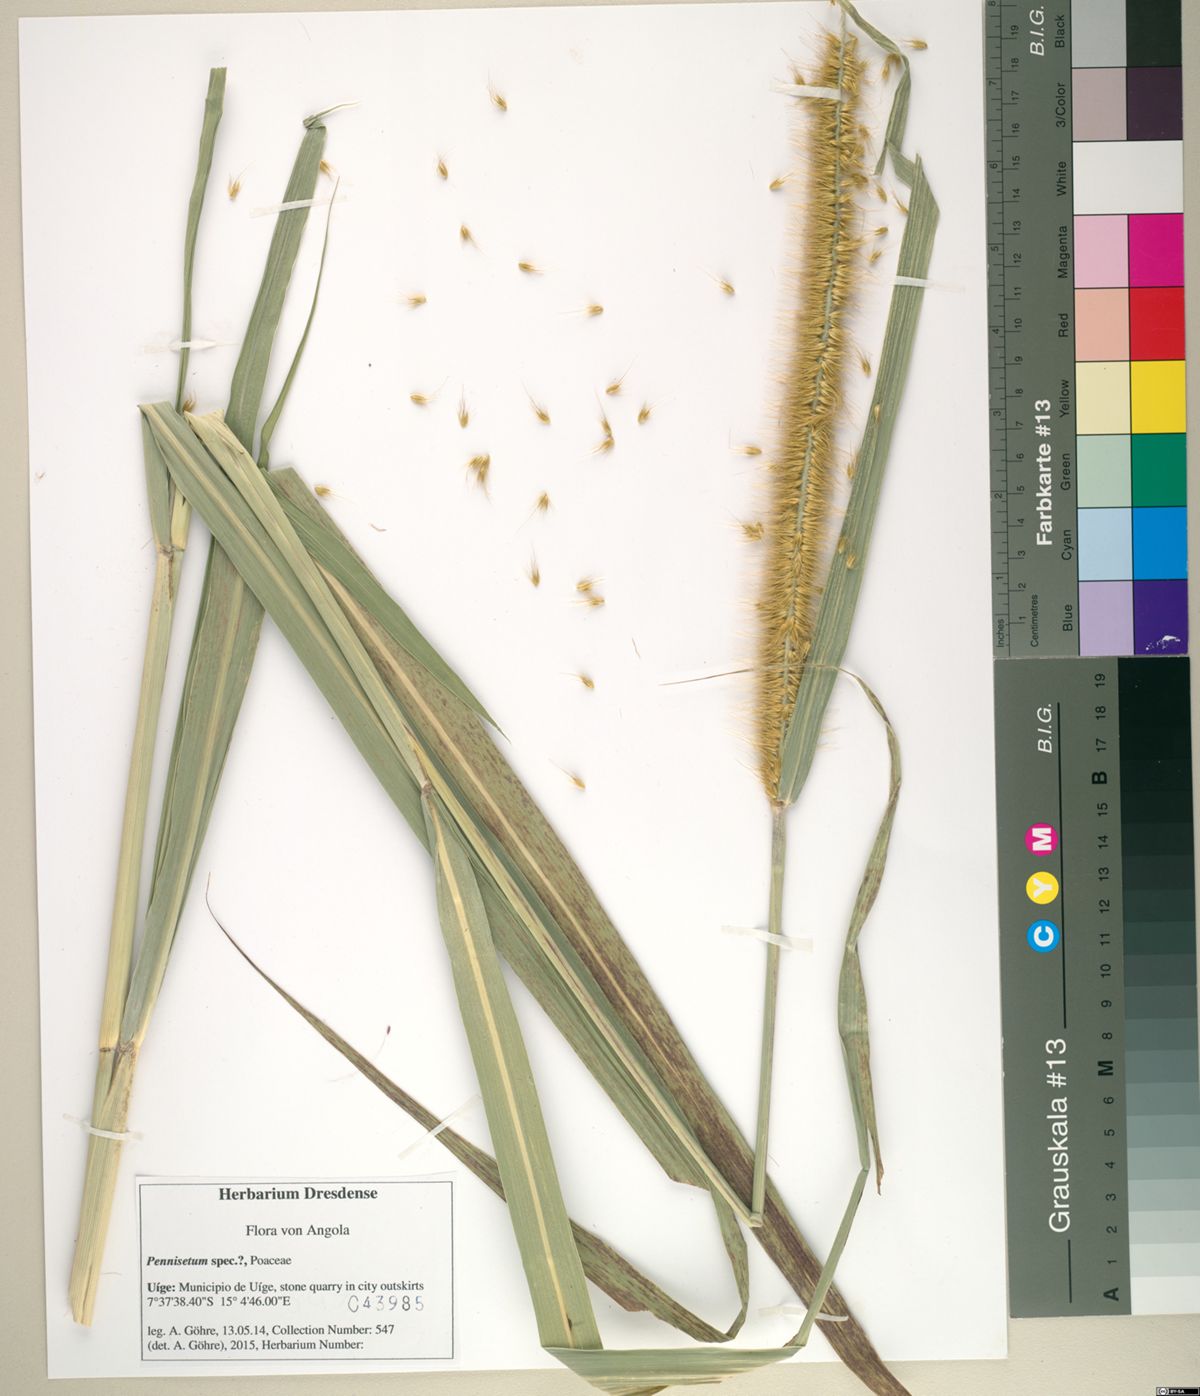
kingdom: Plantae
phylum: Tracheophyta
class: Liliopsida
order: Poales
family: Poaceae
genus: Cenchrus
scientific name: Cenchrus purpureus
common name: Elephant grass
